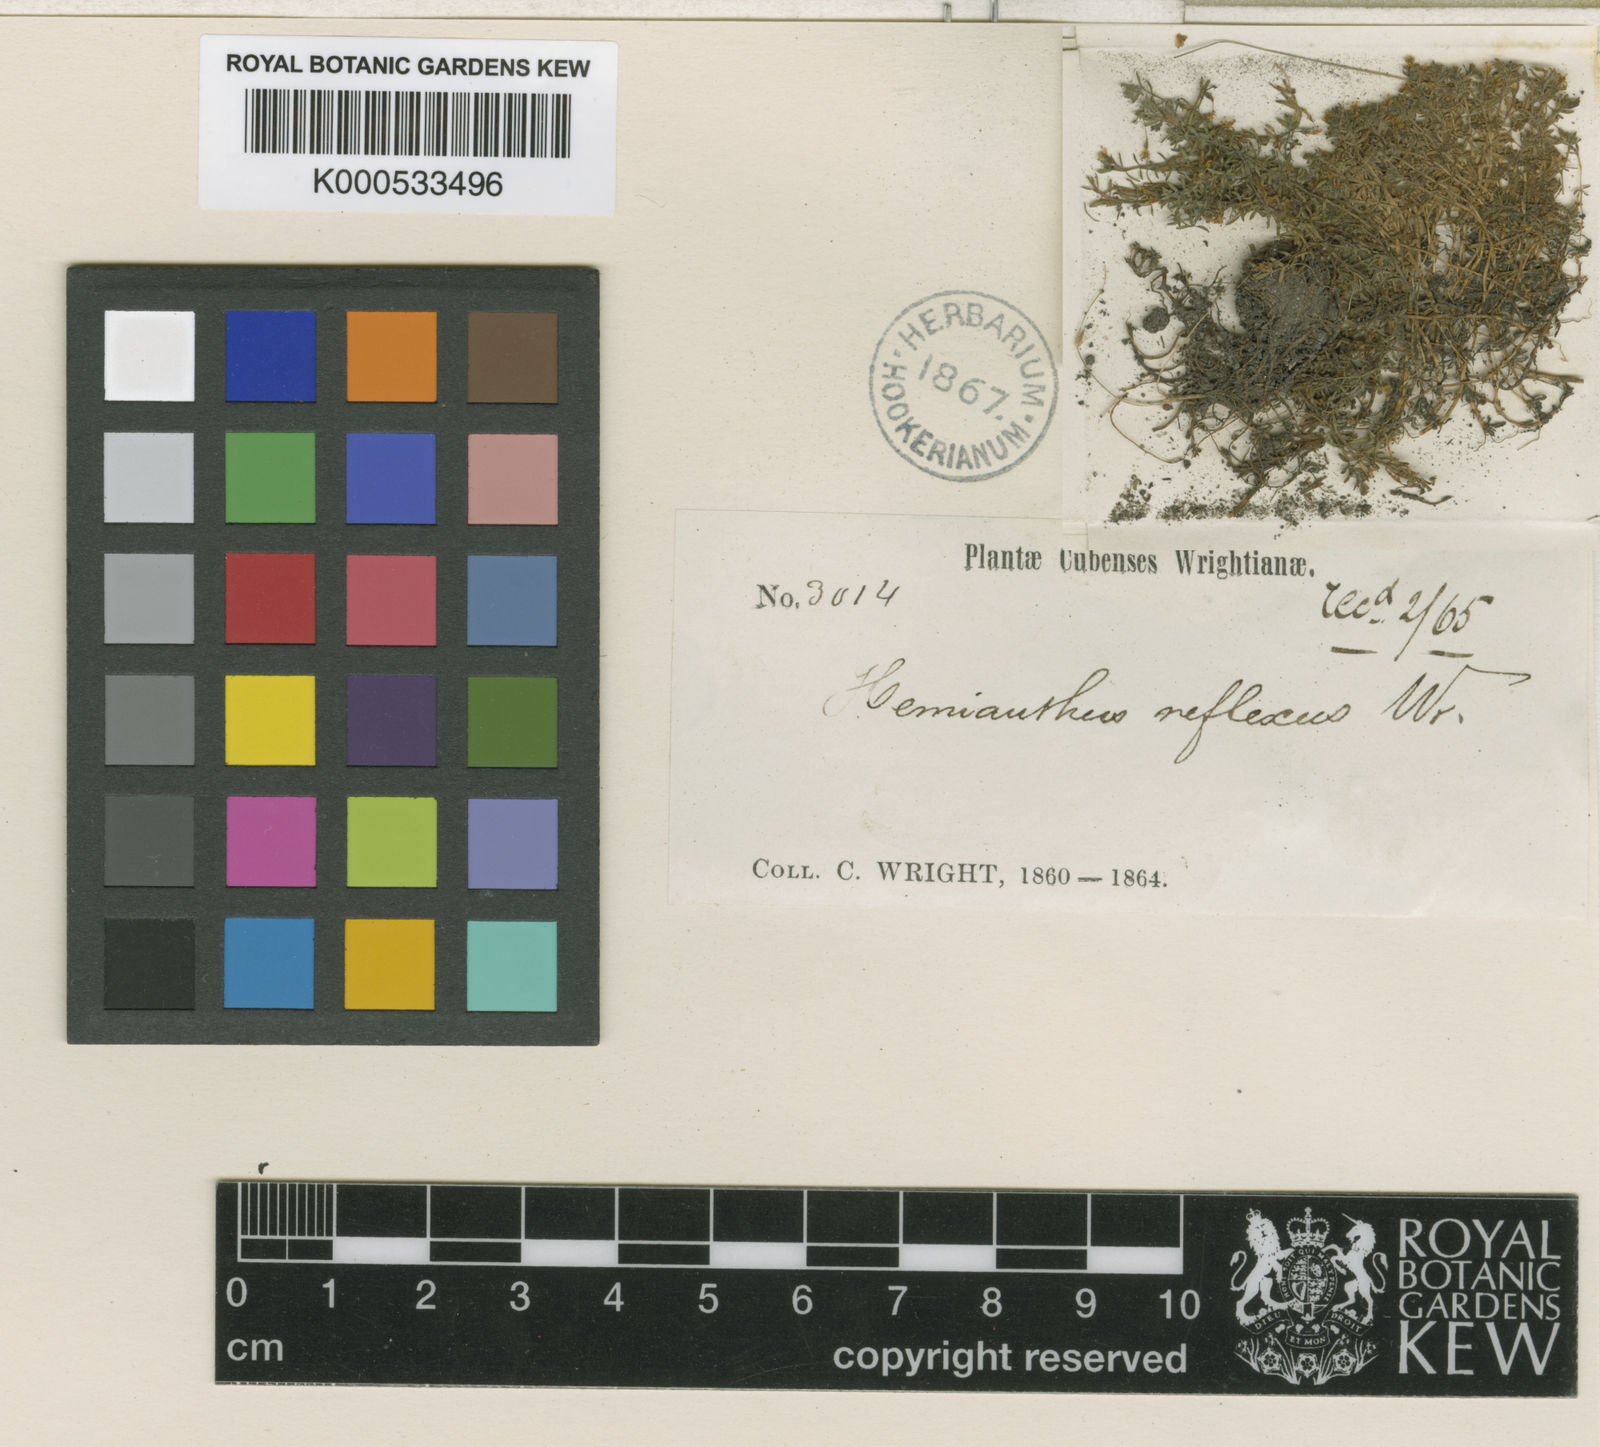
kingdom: Plantae
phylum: Tracheophyta
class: Magnoliopsida
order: Lamiales
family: Linderniaceae
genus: Micranthemum
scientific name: Micranthemum reflexum
